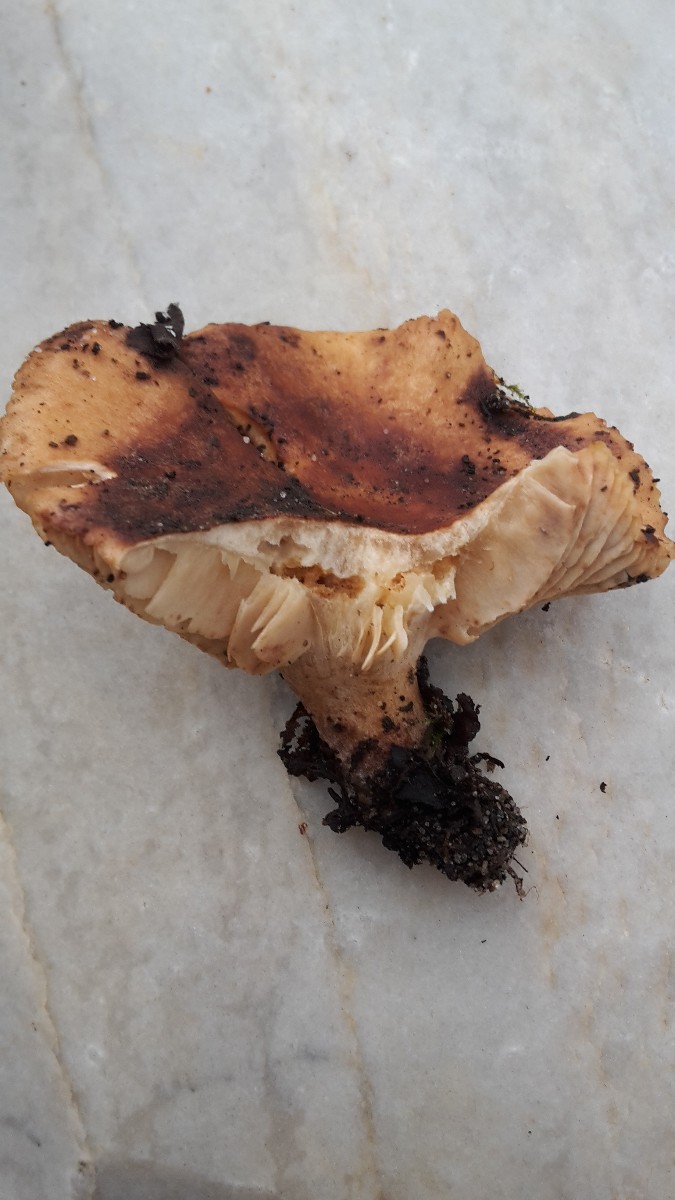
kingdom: Fungi
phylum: Basidiomycota
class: Agaricomycetes
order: Agaricales
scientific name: Agaricales
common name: champignonordenen
